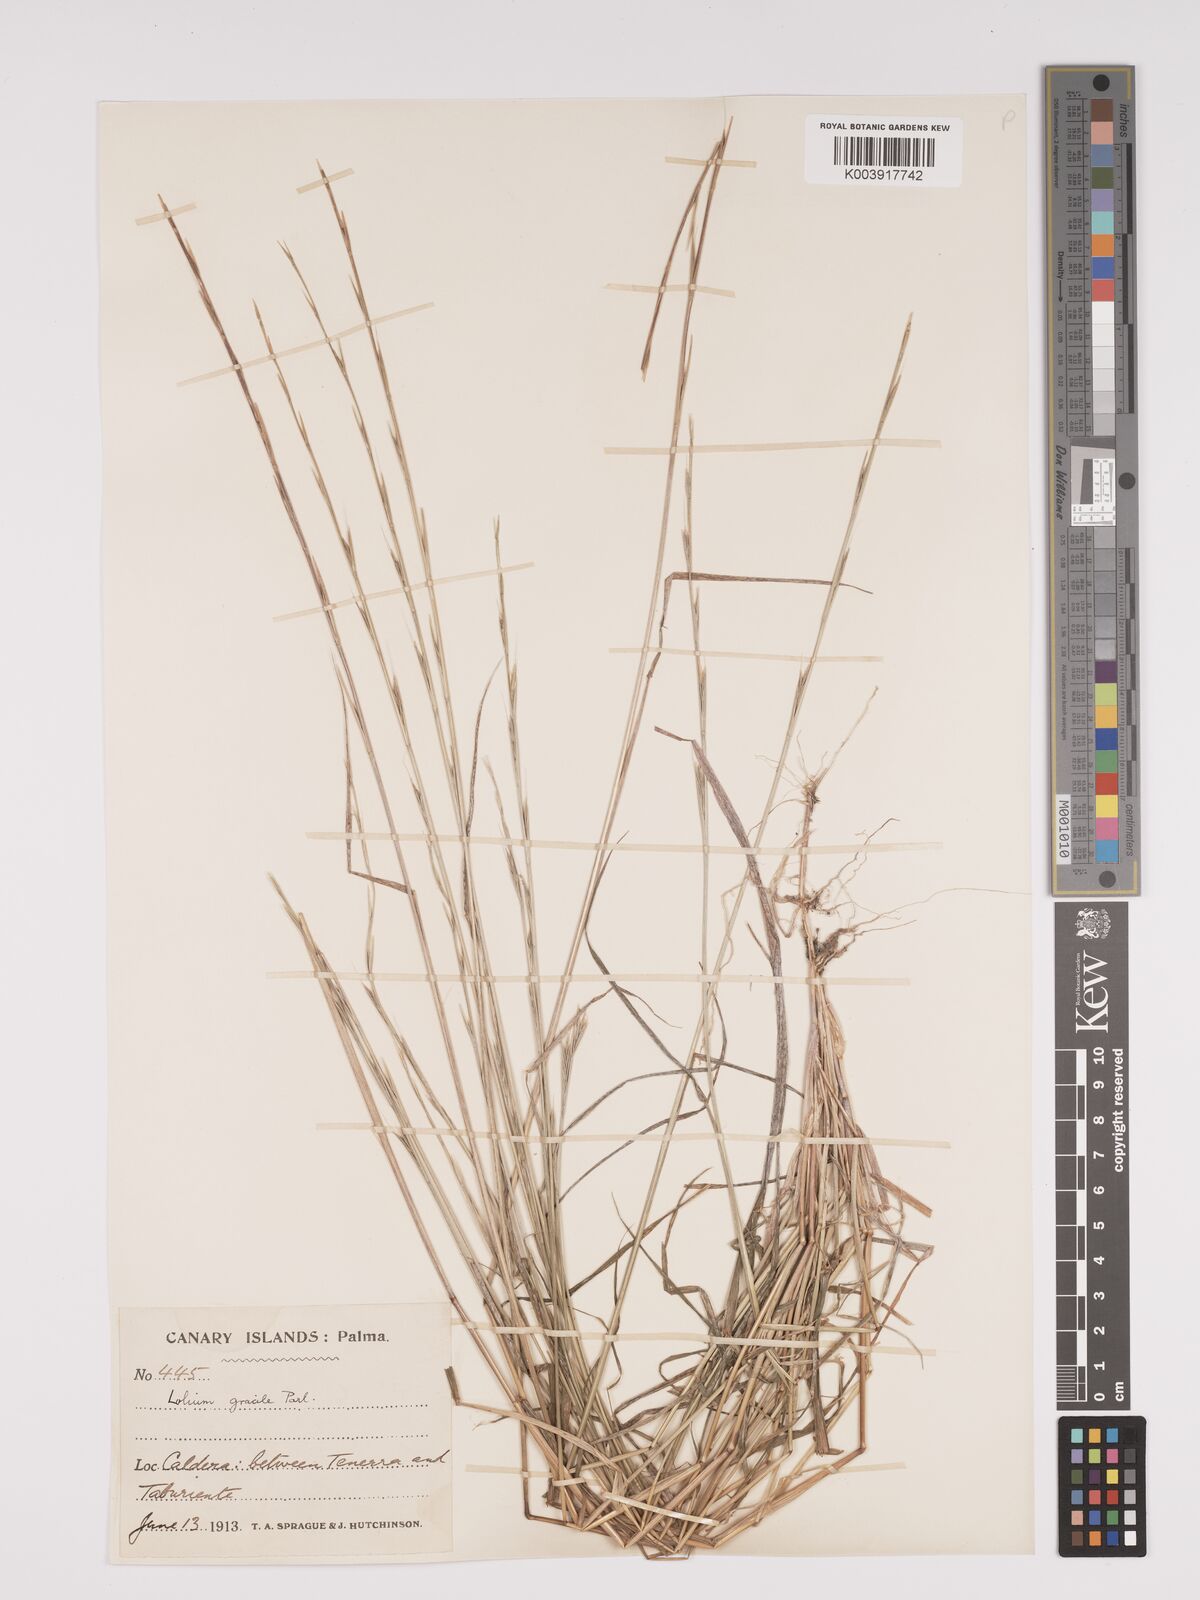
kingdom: Plantae
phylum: Tracheophyta
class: Liliopsida
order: Poales
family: Poaceae
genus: Lolium
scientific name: Lolium canariense
